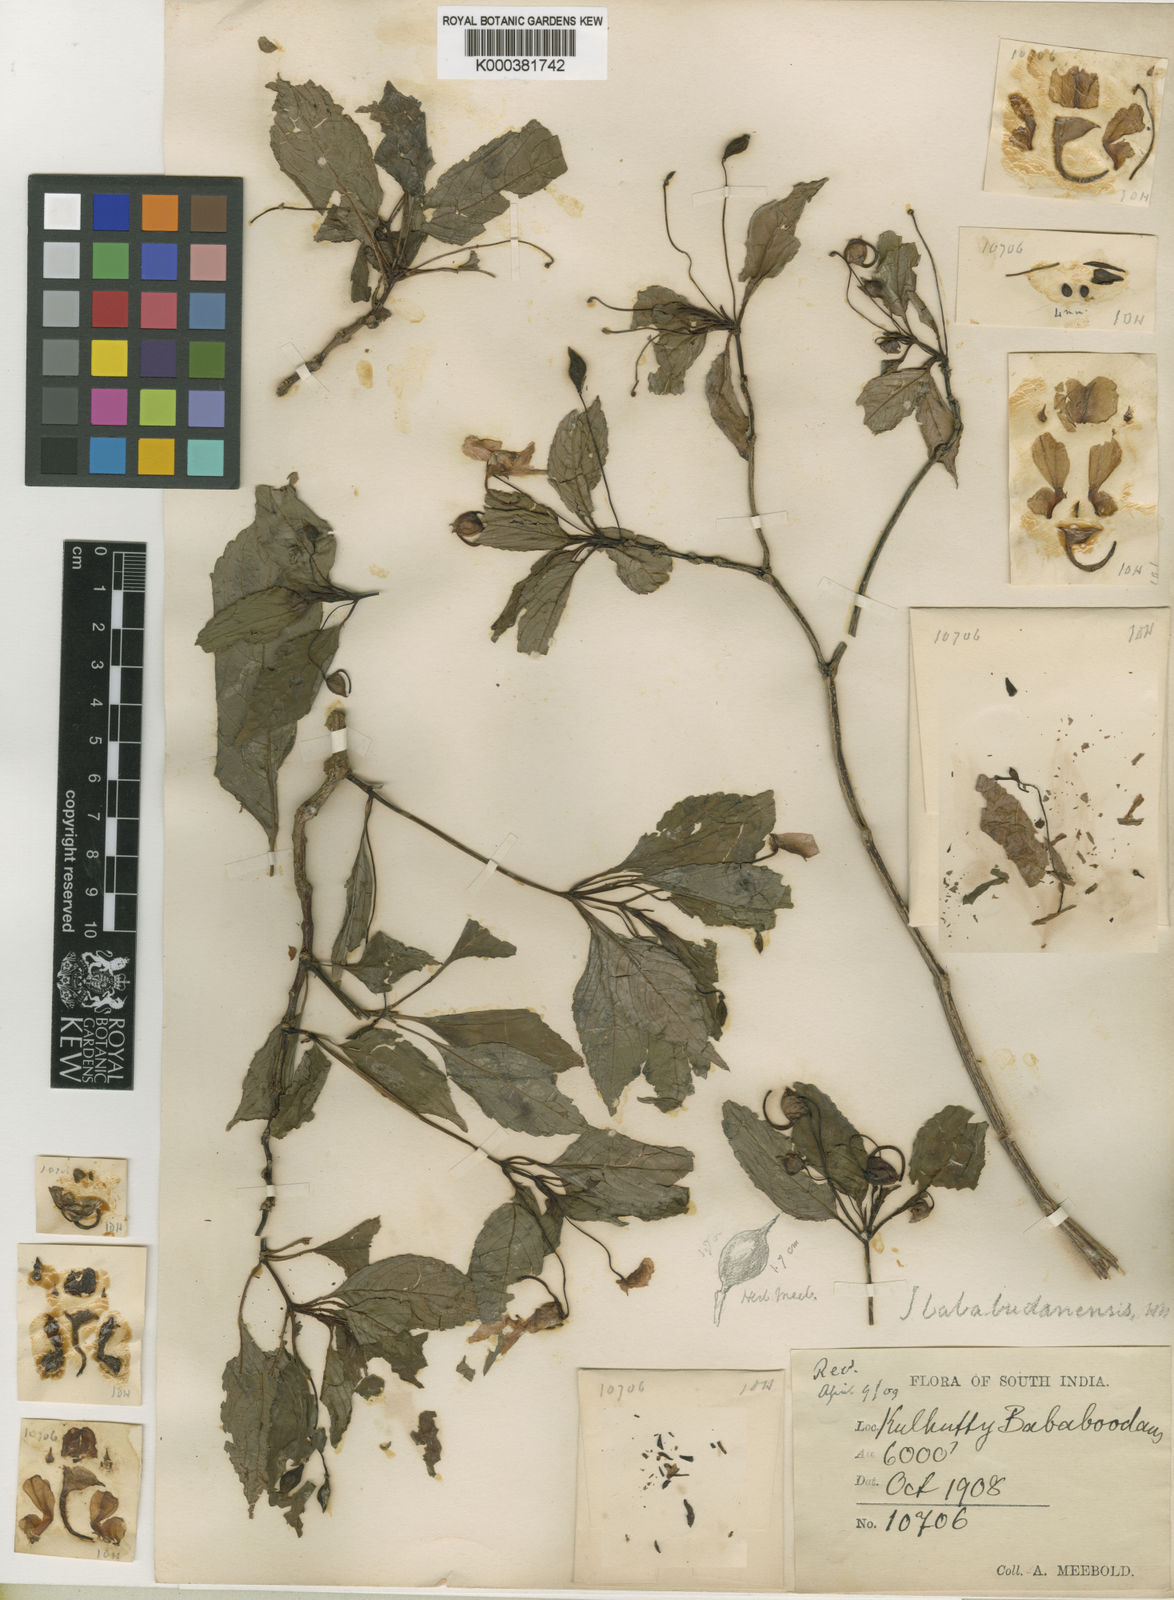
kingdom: Plantae
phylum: Tracheophyta
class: Magnoliopsida
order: Ericales
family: Balsaminaceae
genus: Impatiens
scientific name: Impatiens bababudenensis
